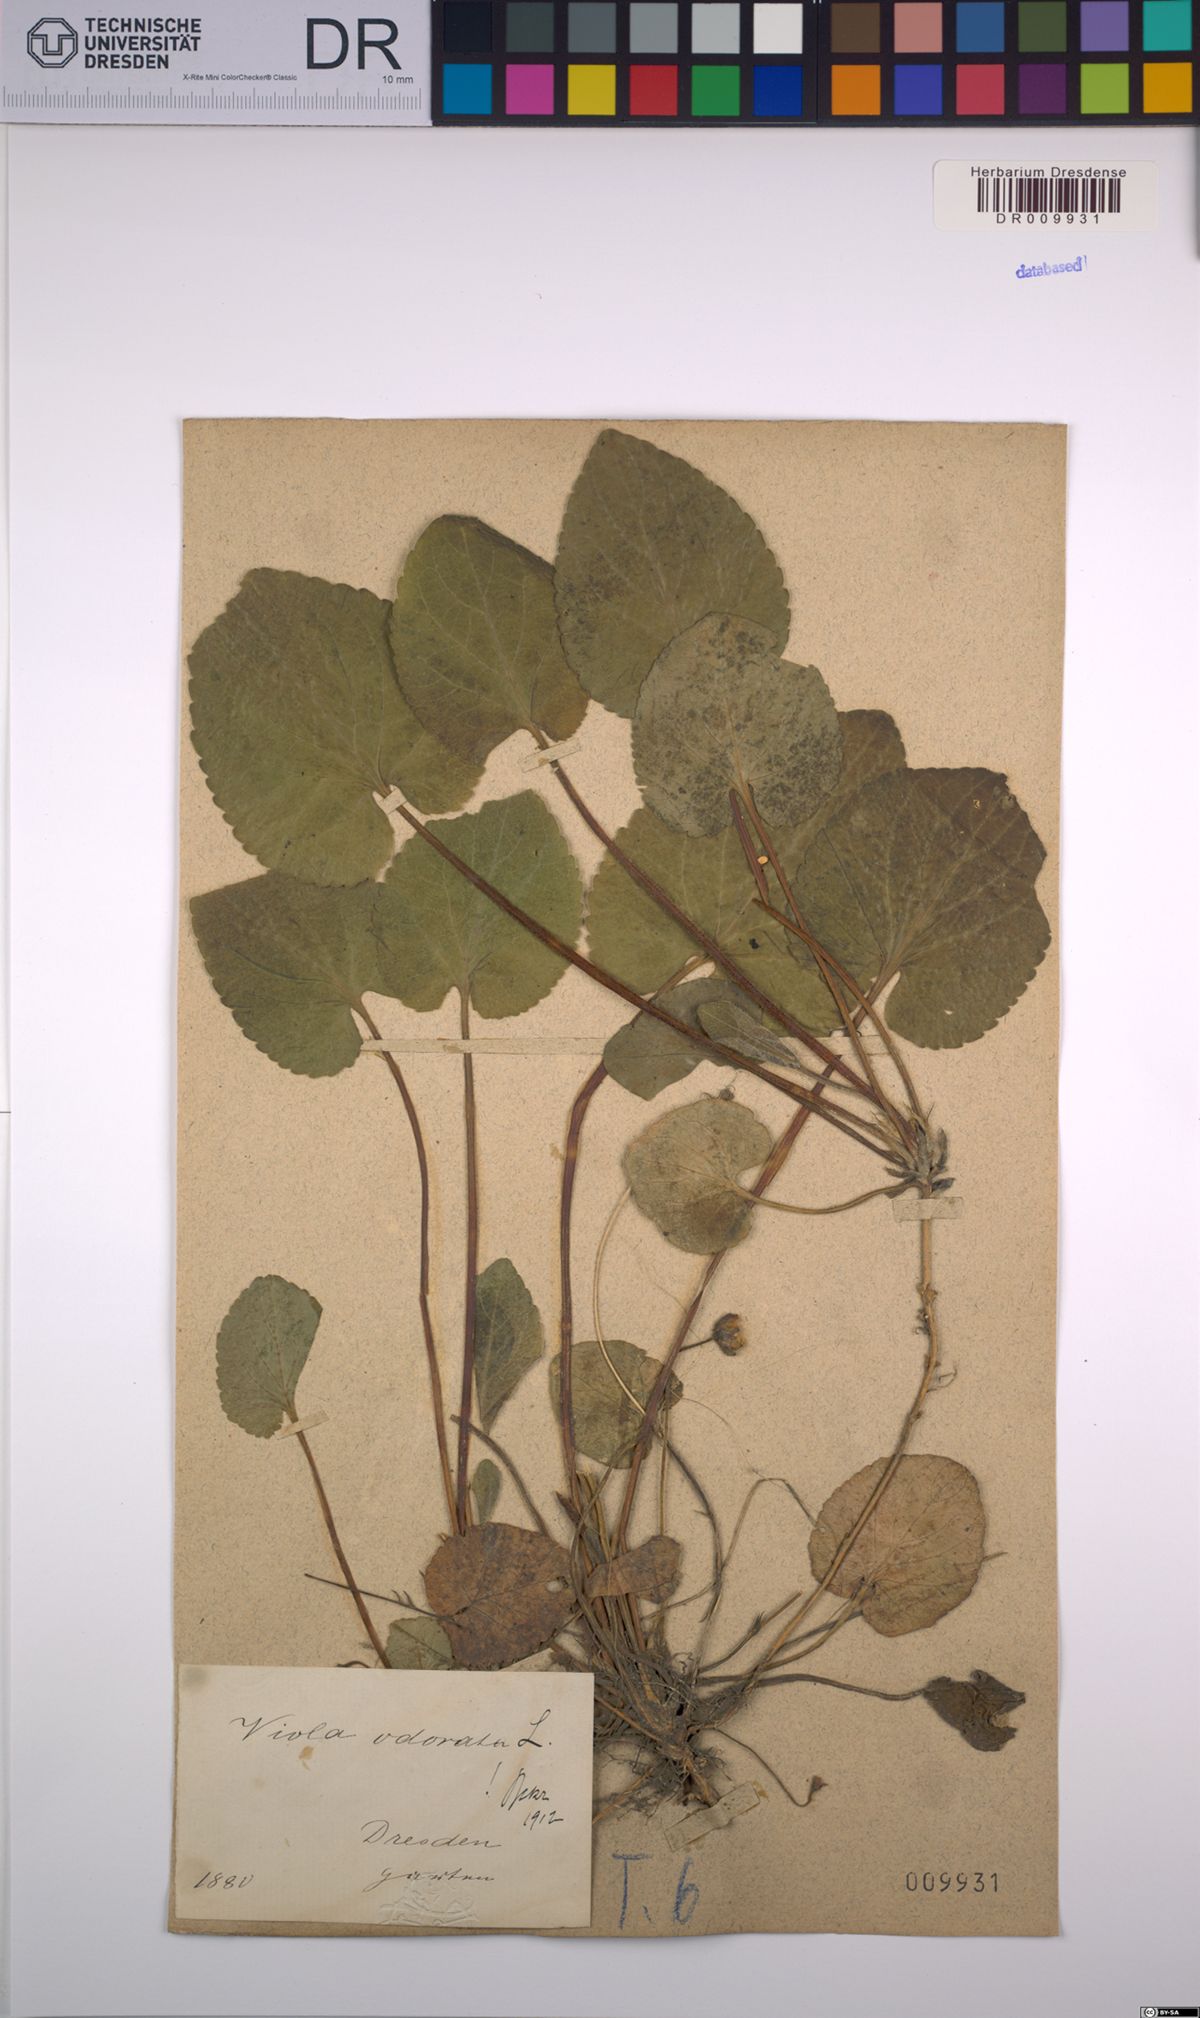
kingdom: Plantae
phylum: Tracheophyta
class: Magnoliopsida
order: Malpighiales
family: Violaceae
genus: Viola
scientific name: Viola odorata
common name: Sweet violet
